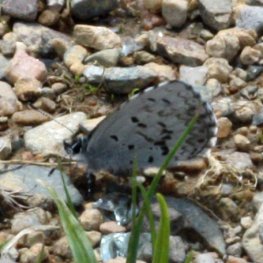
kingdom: Animalia
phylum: Arthropoda
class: Insecta
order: Lepidoptera
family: Lycaenidae
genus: Celastrina
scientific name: Celastrina lucia
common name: Northern Spring Azure
